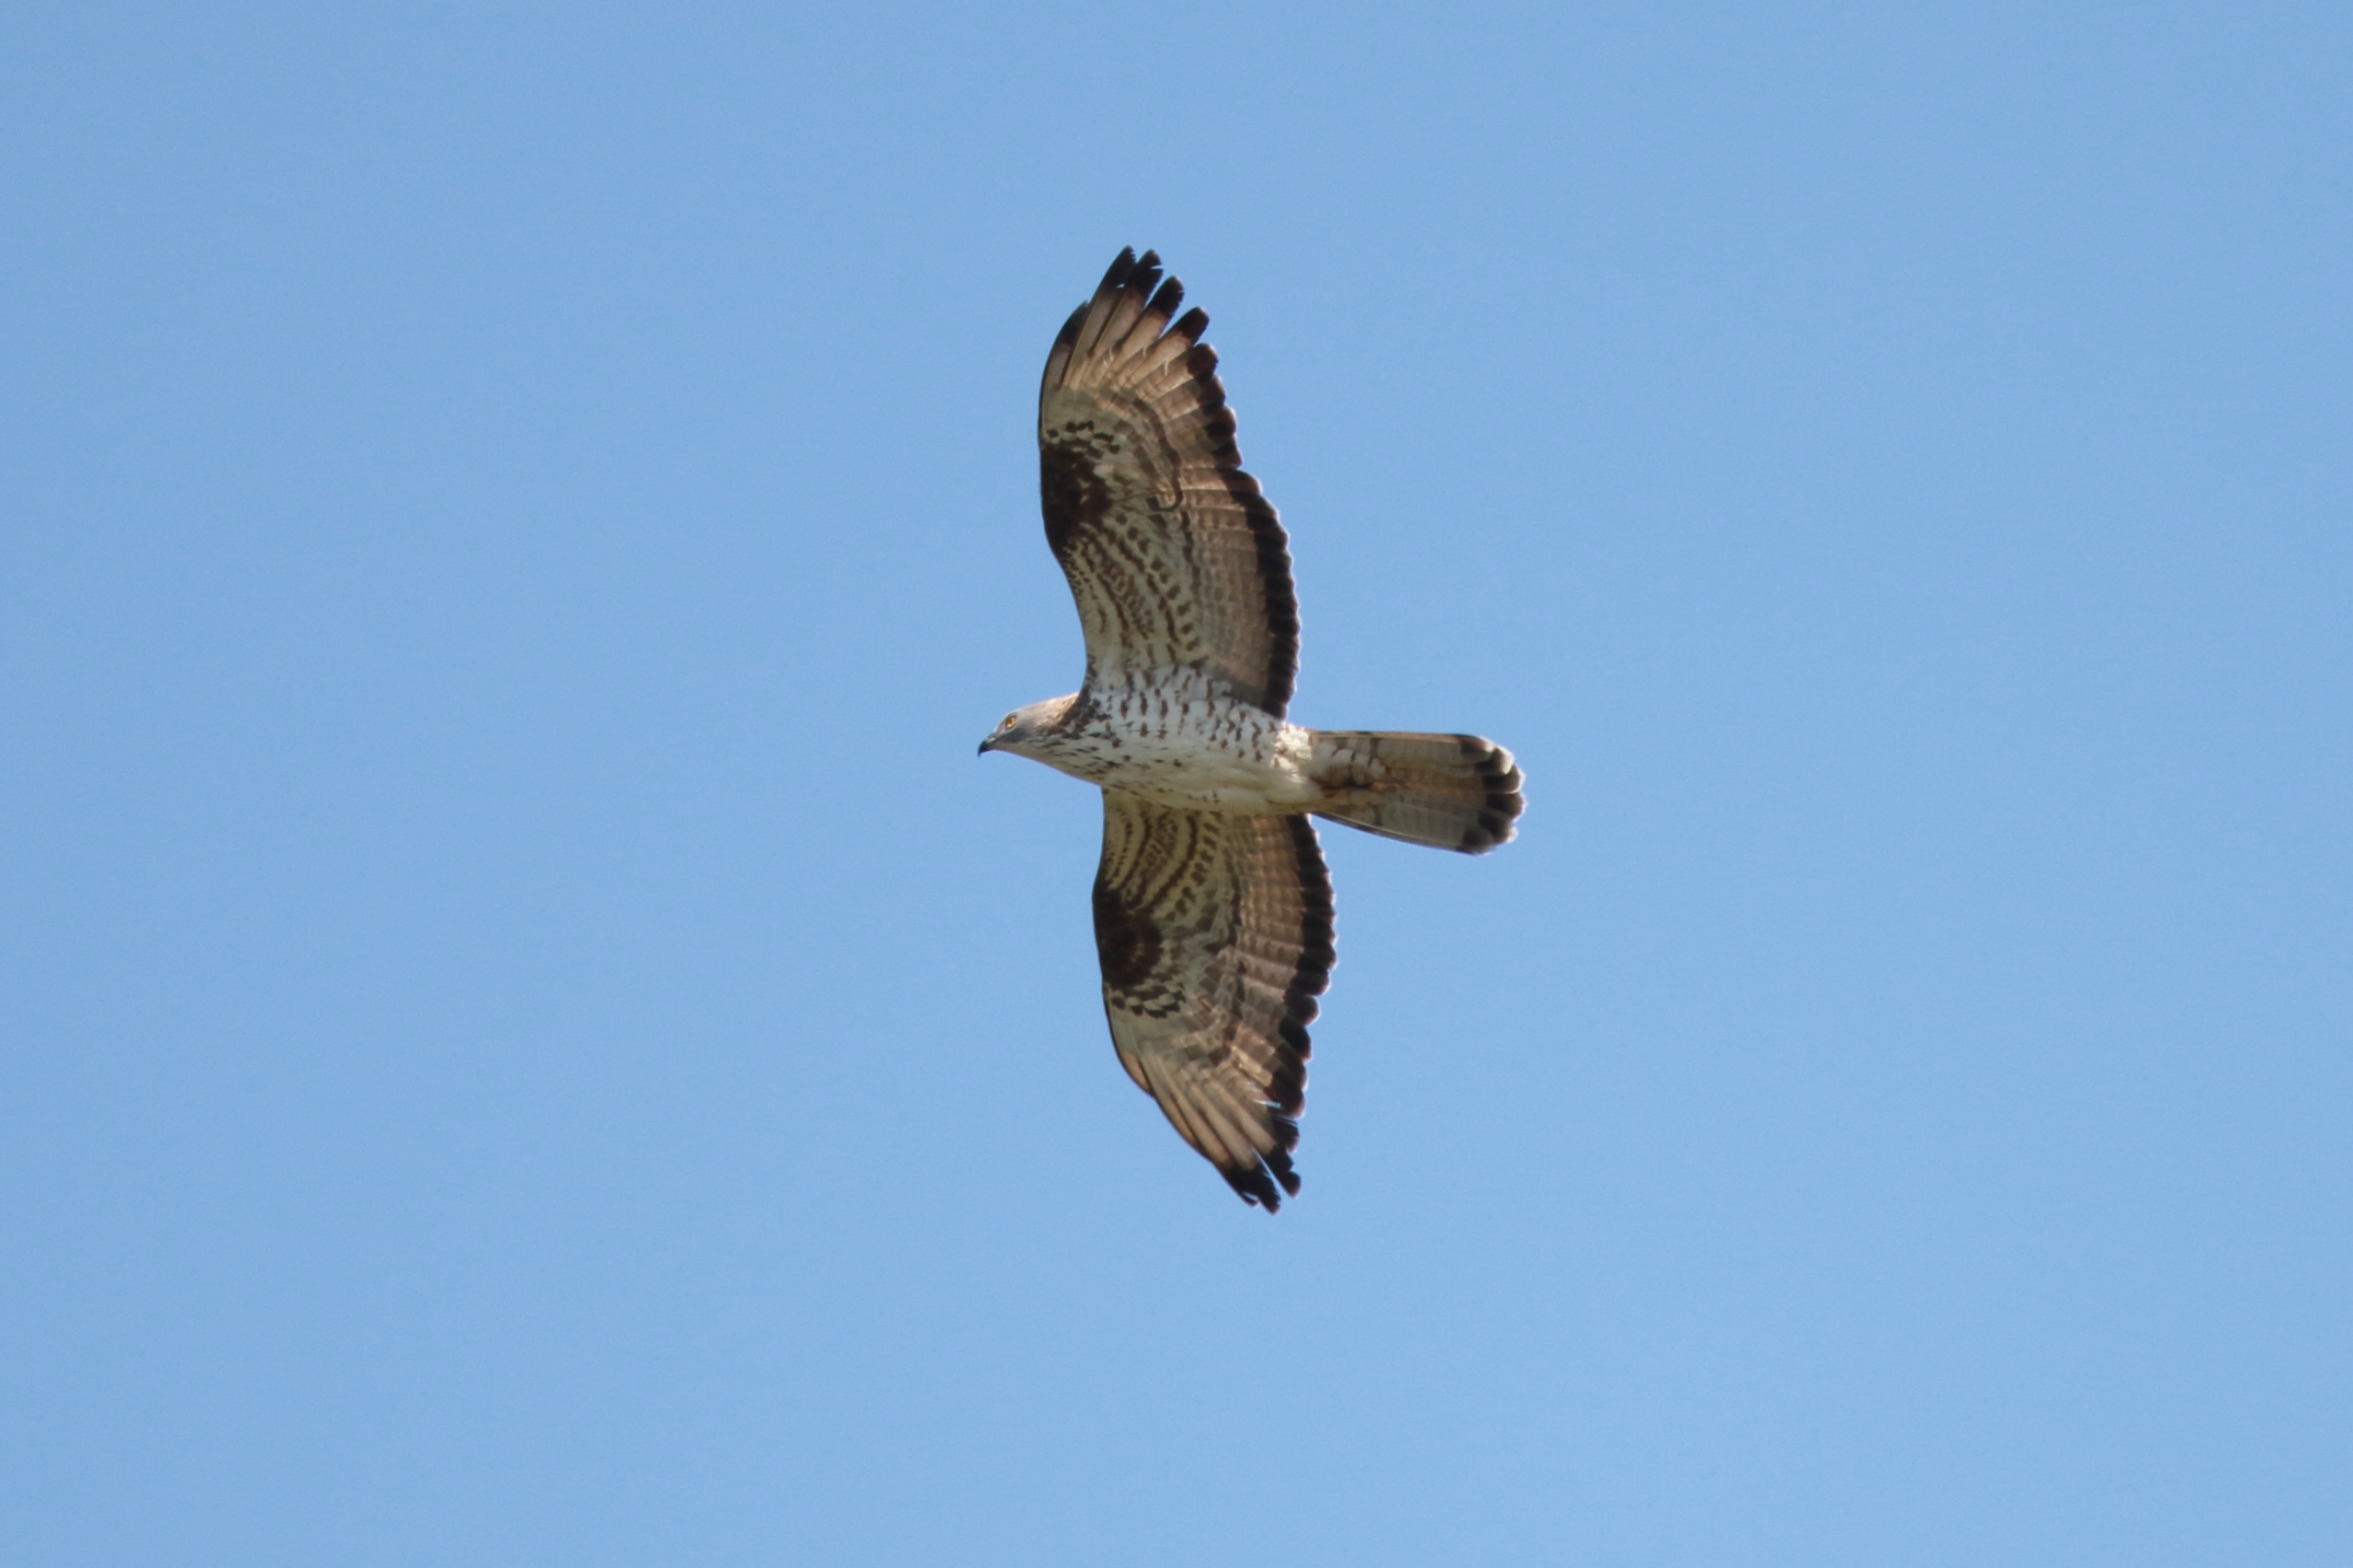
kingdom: Animalia
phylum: Chordata
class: Aves
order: Accipitriformes
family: Accipitridae
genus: Pernis
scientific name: Pernis apivorus
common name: Hvepsevåge
